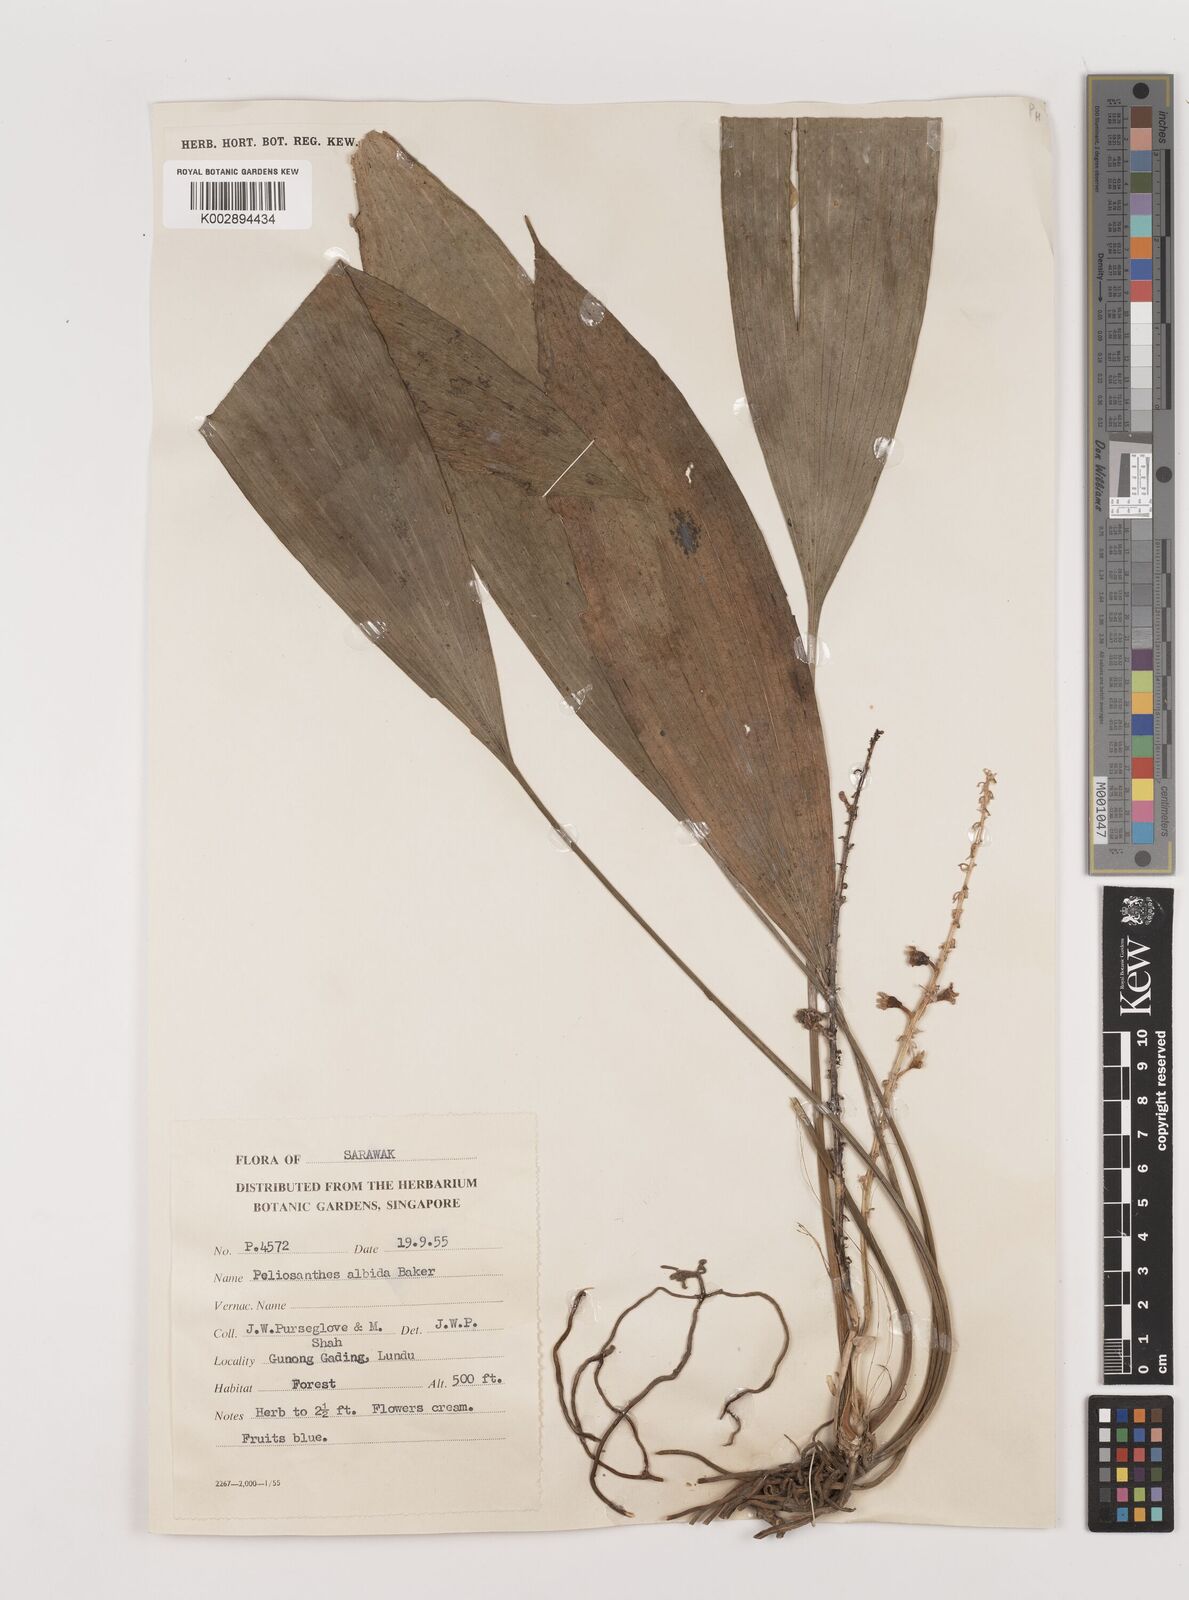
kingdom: Plantae
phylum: Tracheophyta
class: Liliopsida
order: Asparagales
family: Asparagaceae
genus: Peliosanthes
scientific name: Peliosanthes teta
